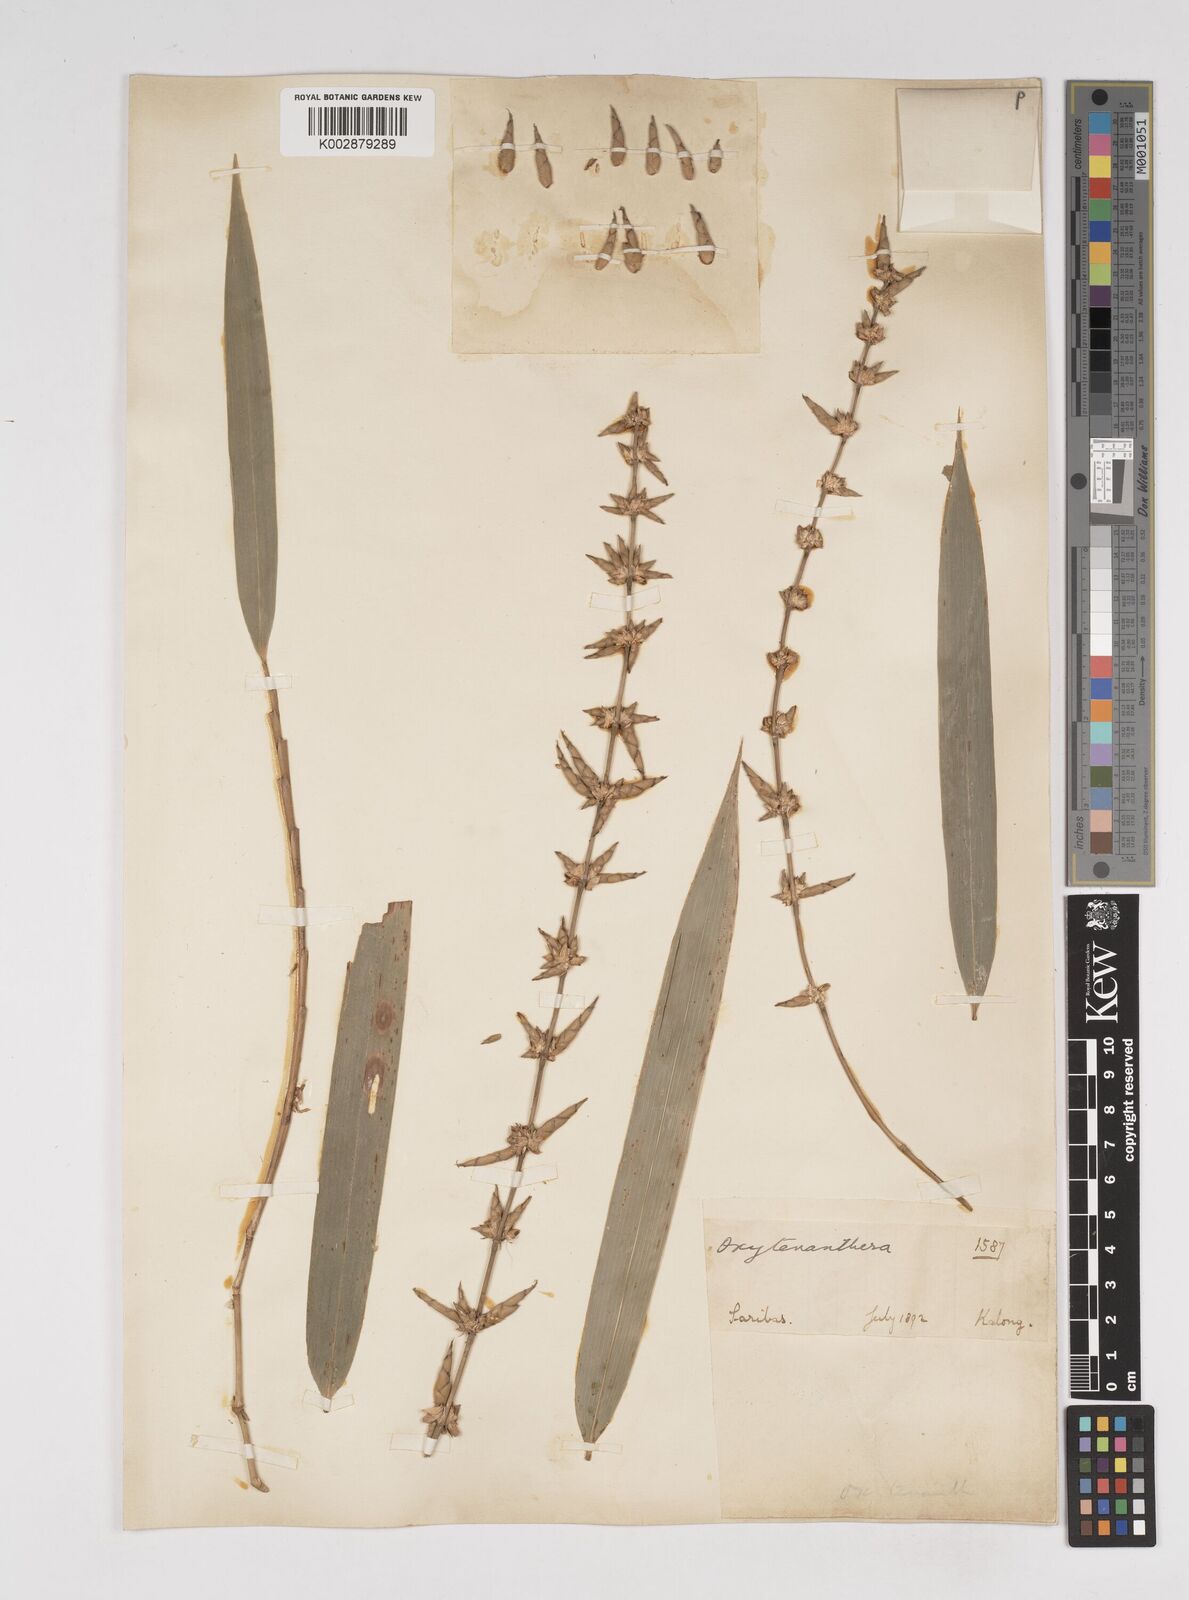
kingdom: Plantae
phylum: Tracheophyta
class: Liliopsida
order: Poales
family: Poaceae
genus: Dendrocalamus
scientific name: Dendrocalamus
